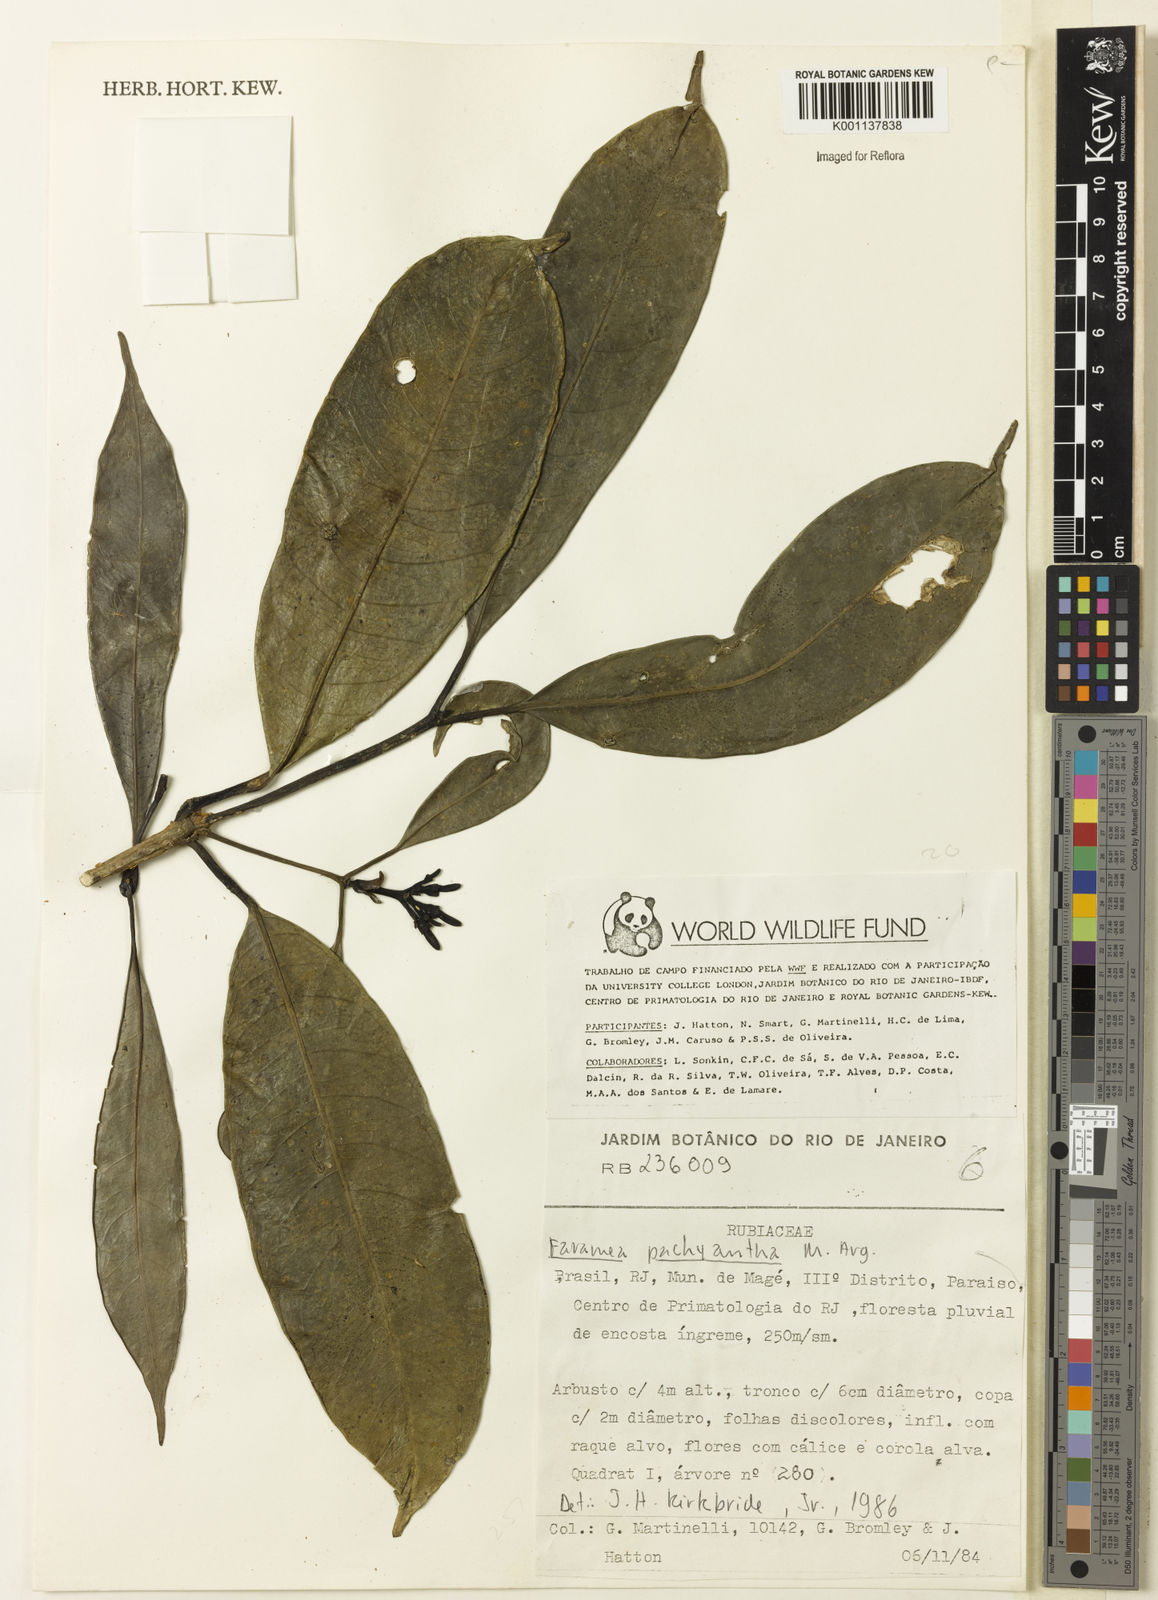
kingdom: Plantae
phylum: Tracheophyta
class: Magnoliopsida
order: Gentianales
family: Rubiaceae
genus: Faramea
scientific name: Faramea
